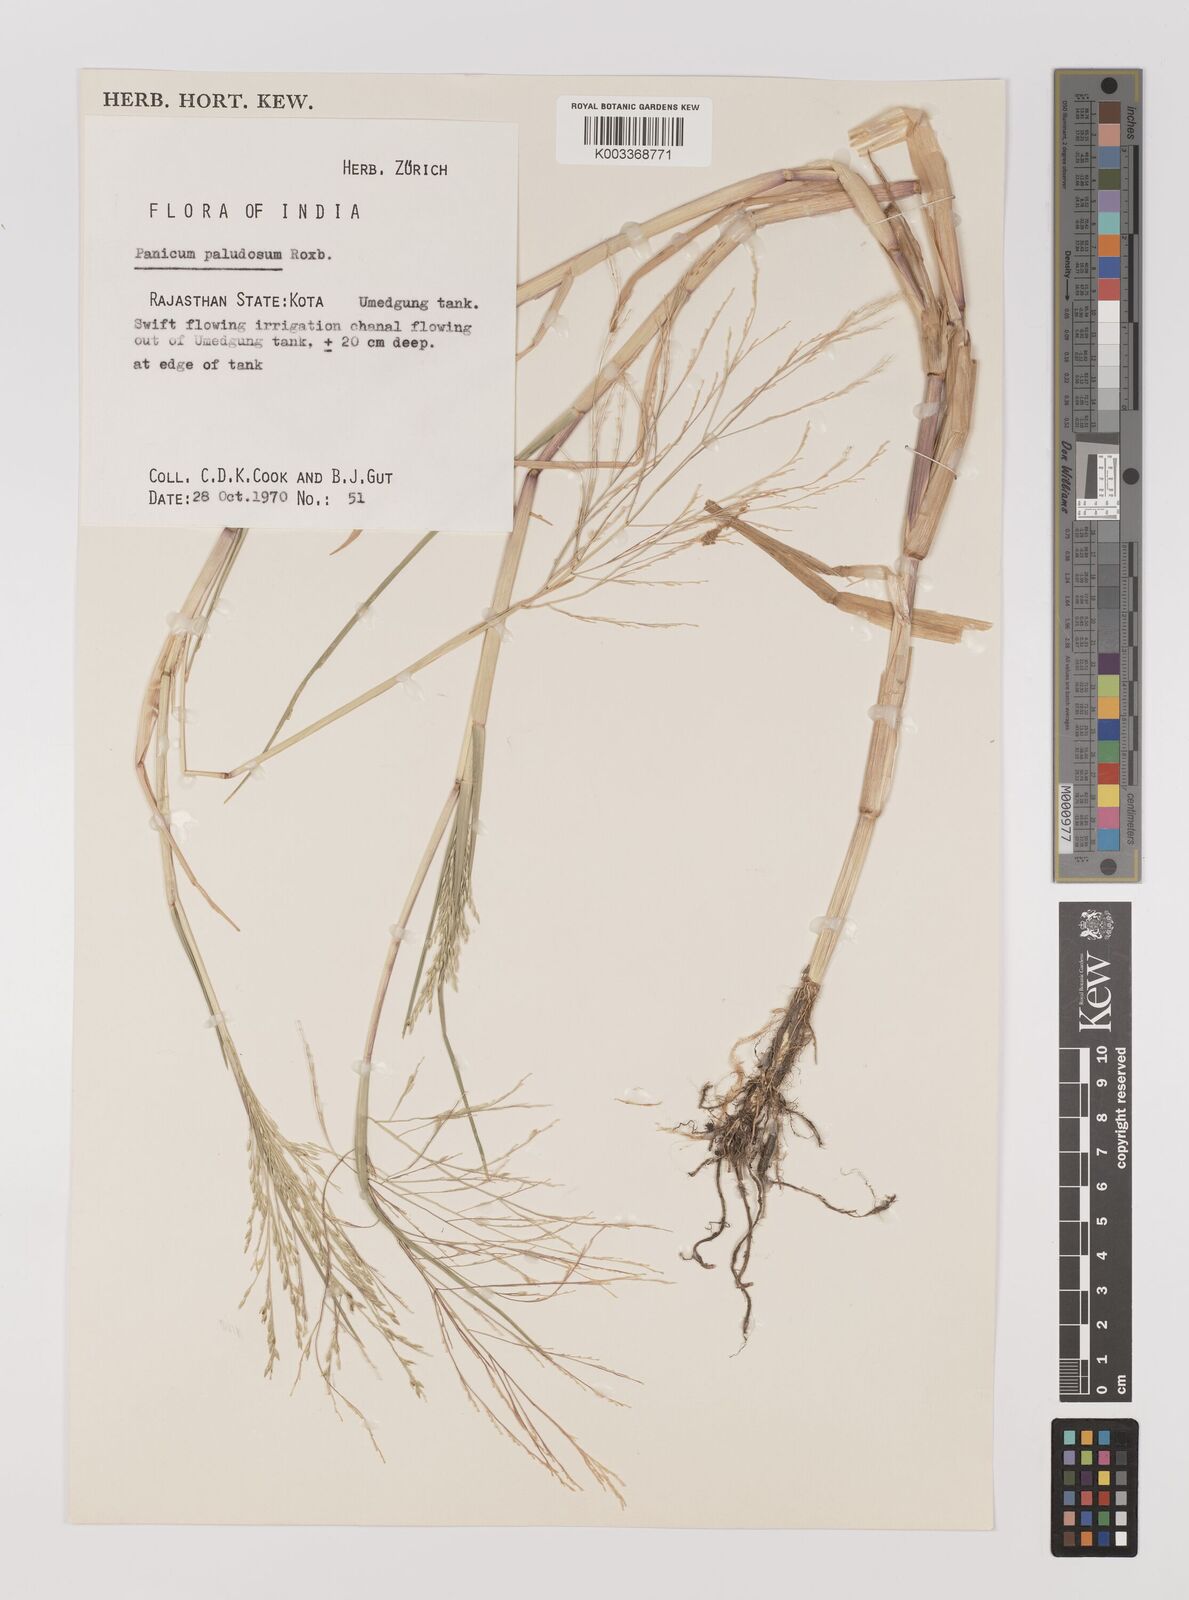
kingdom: Plantae
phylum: Tracheophyta
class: Liliopsida
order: Poales
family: Poaceae
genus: Louisiella
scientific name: Louisiella paludosa
